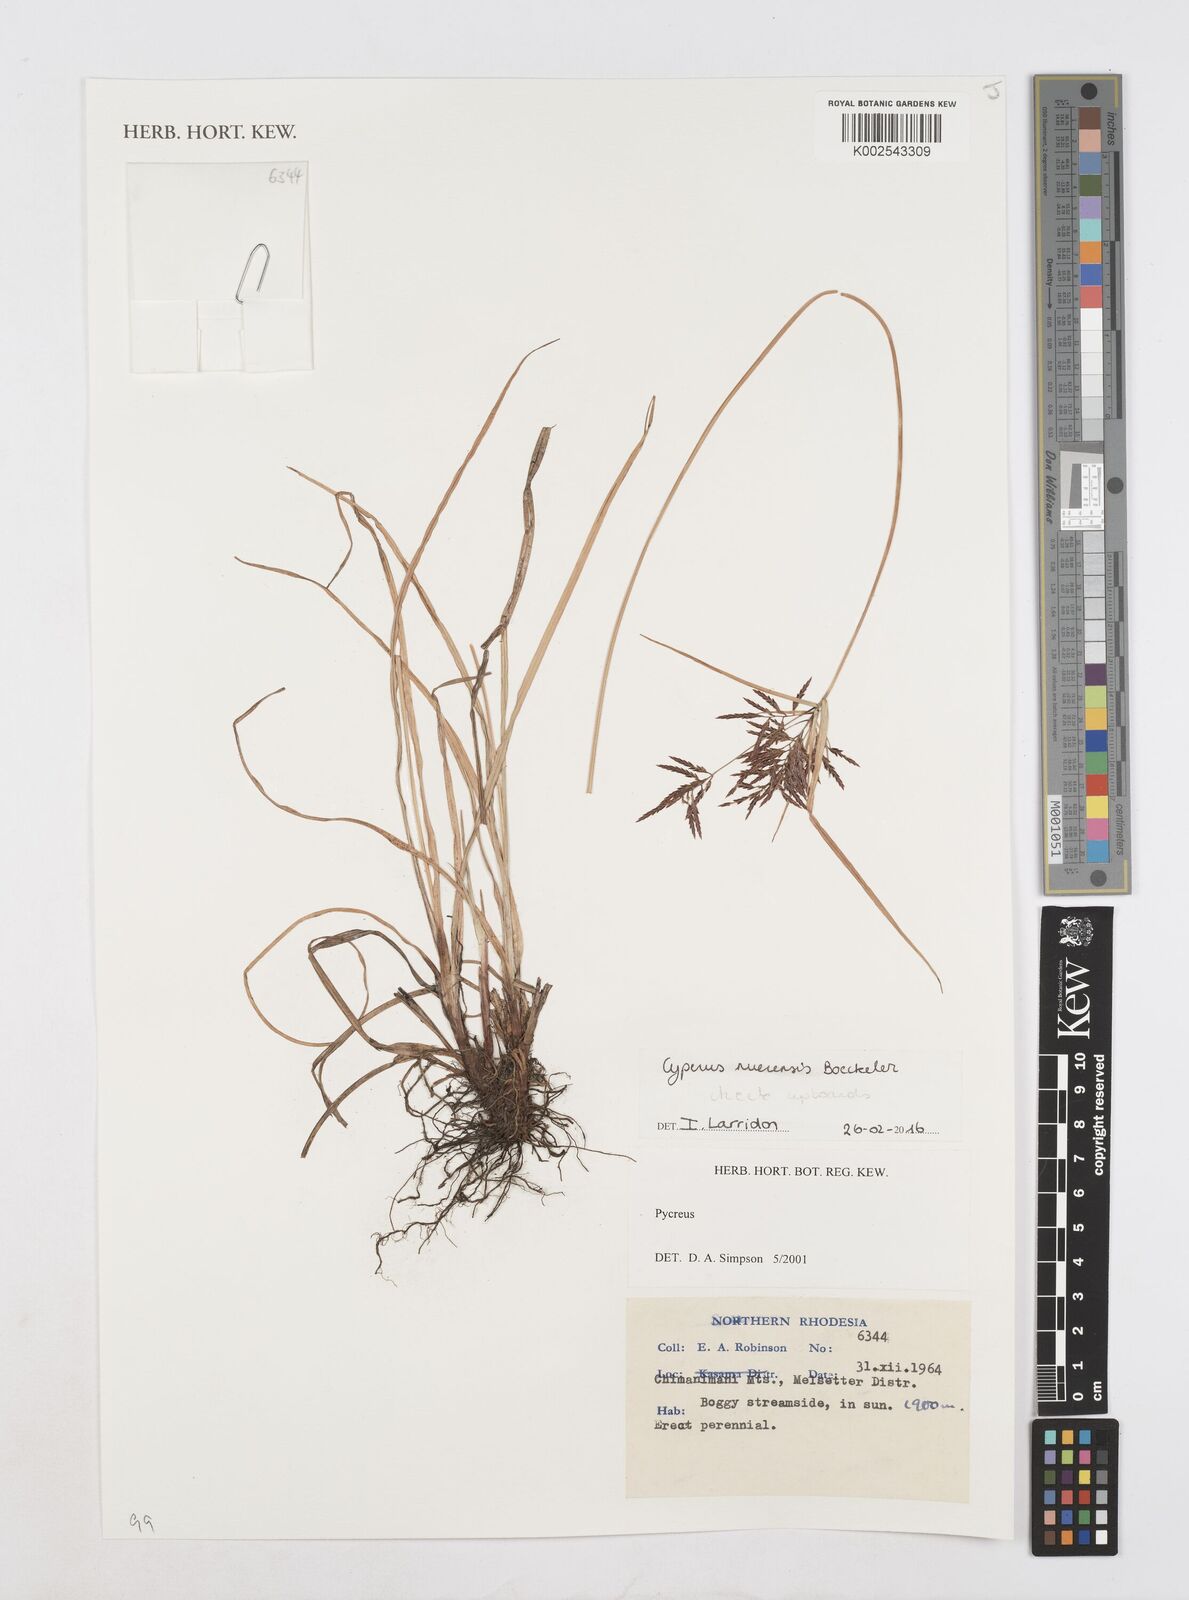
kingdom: Plantae
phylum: Tracheophyta
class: Liliopsida
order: Poales
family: Cyperaceae
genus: Cyperus
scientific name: Cyperus nuerensis
